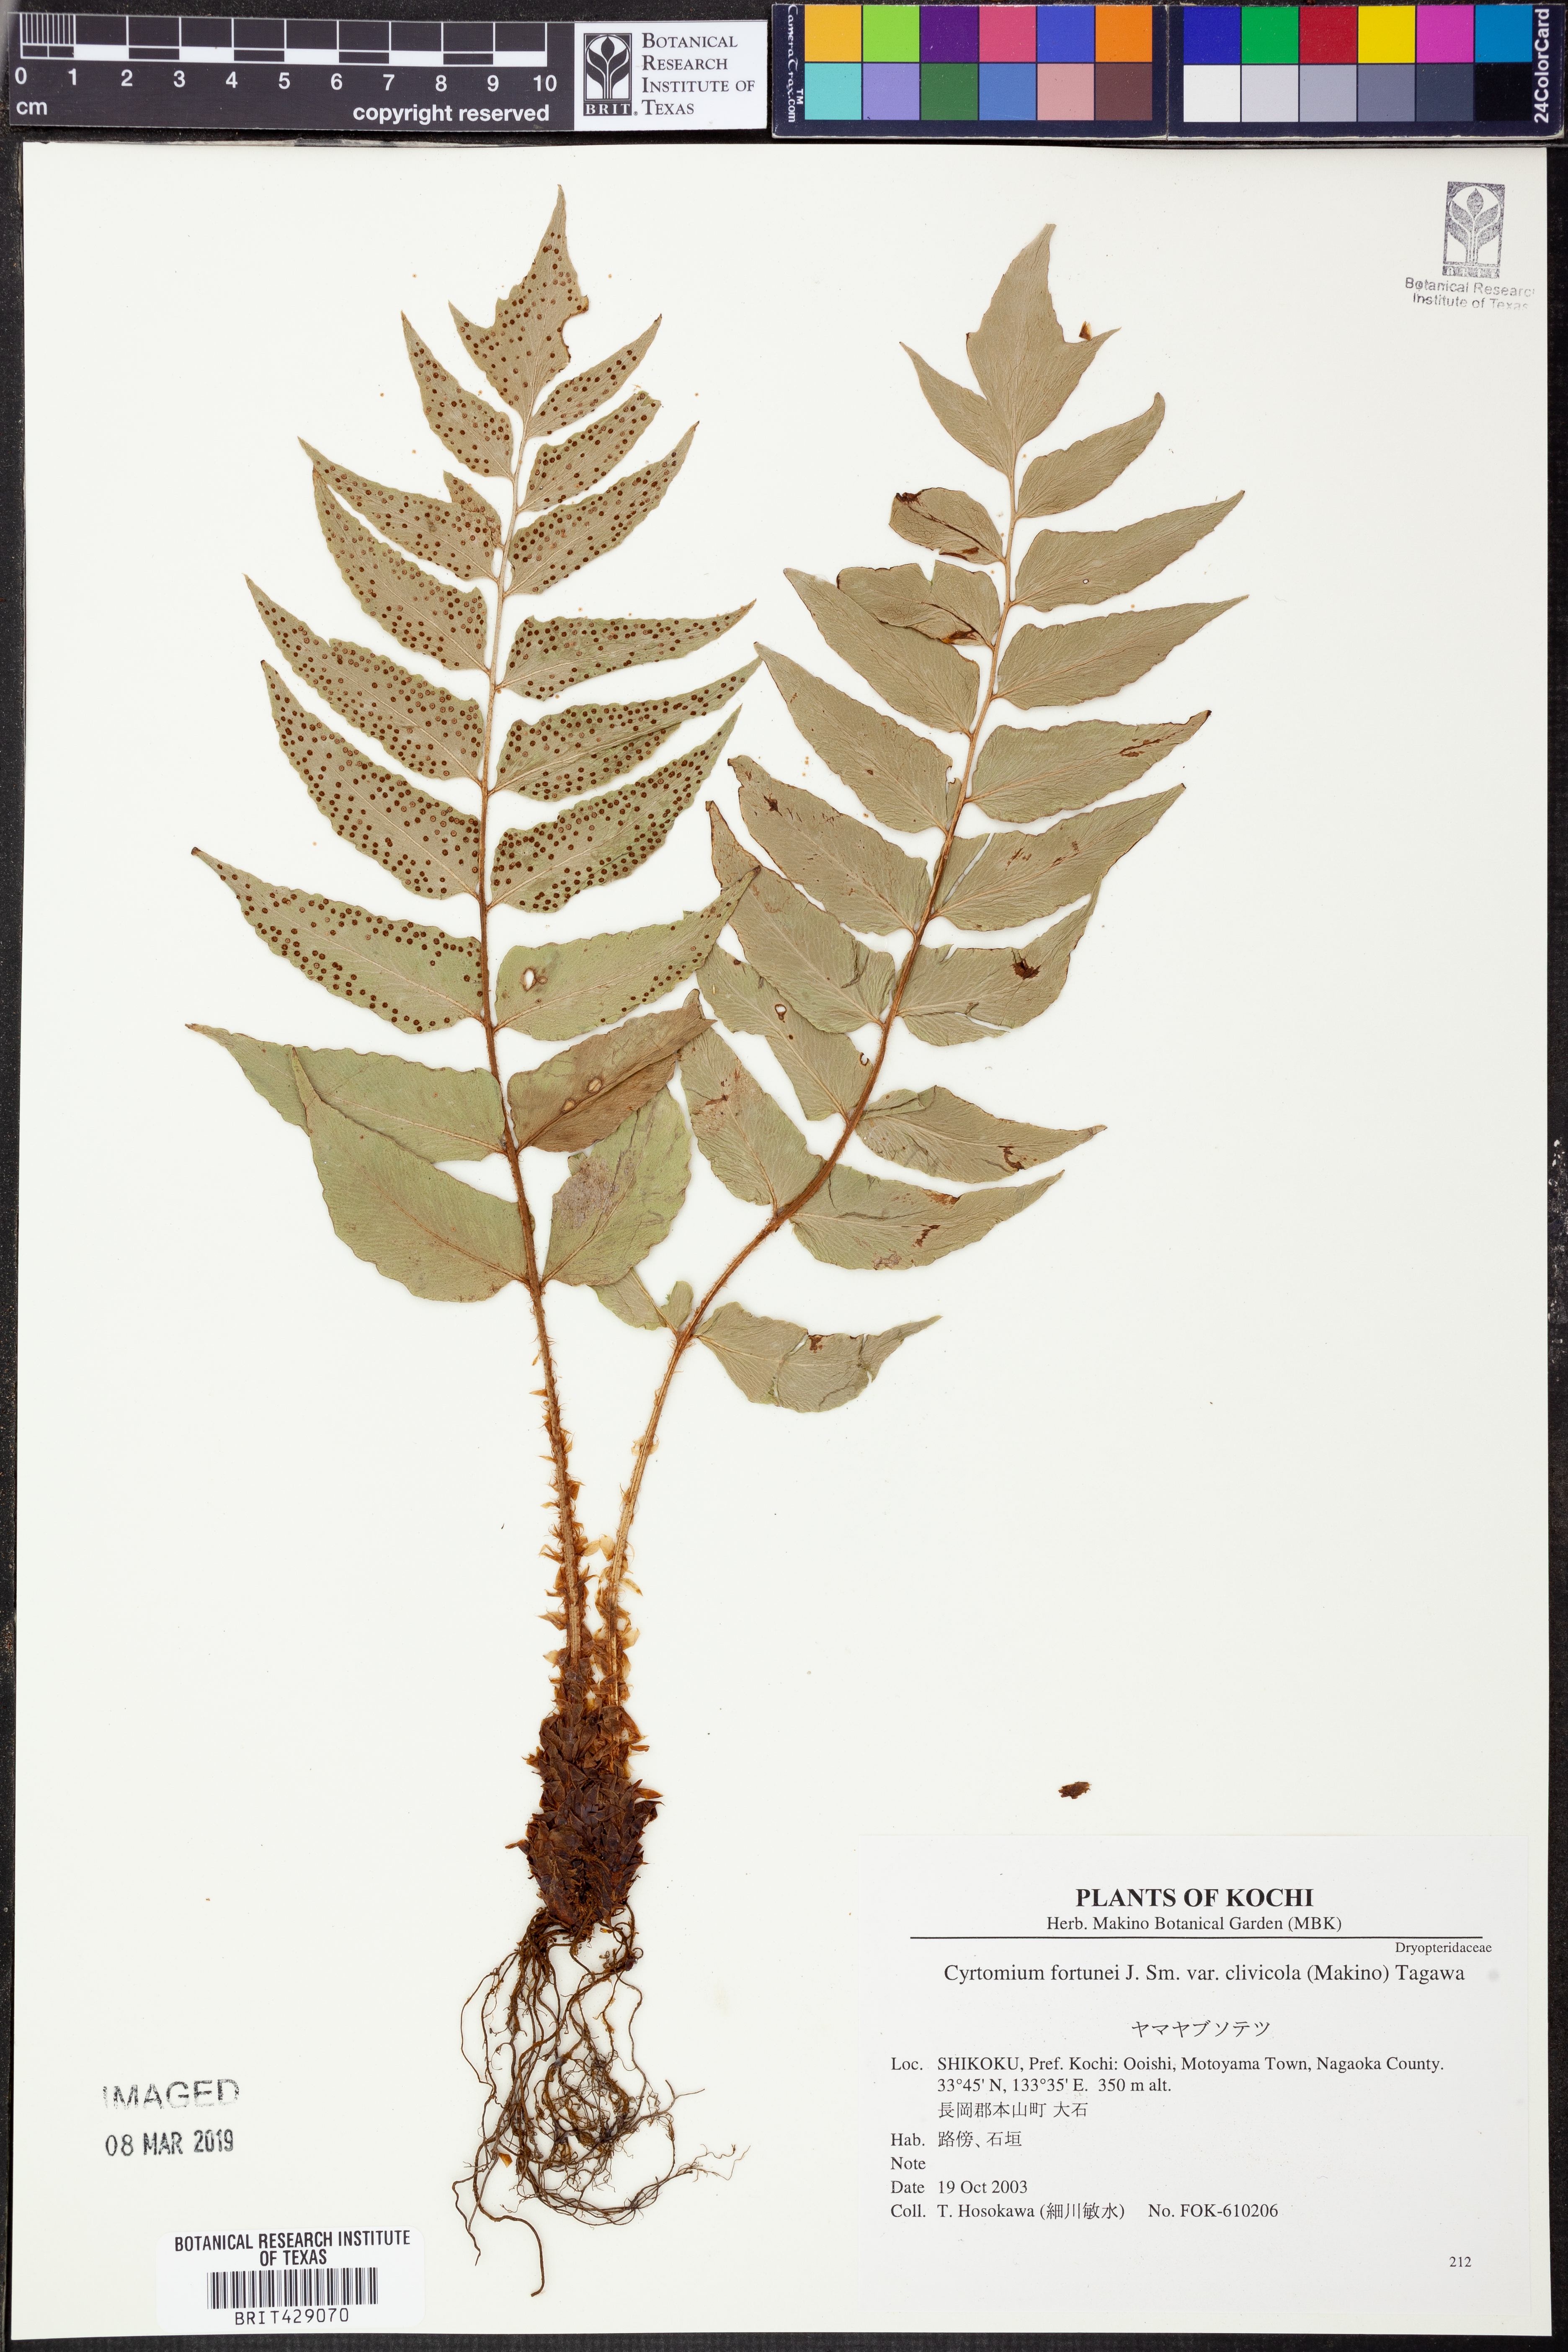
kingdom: Plantae
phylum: Tracheophyta
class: Polypodiopsida
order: Polypodiales
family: Dryopteridaceae
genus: Cyrtomium
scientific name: Cyrtomium clivicola
